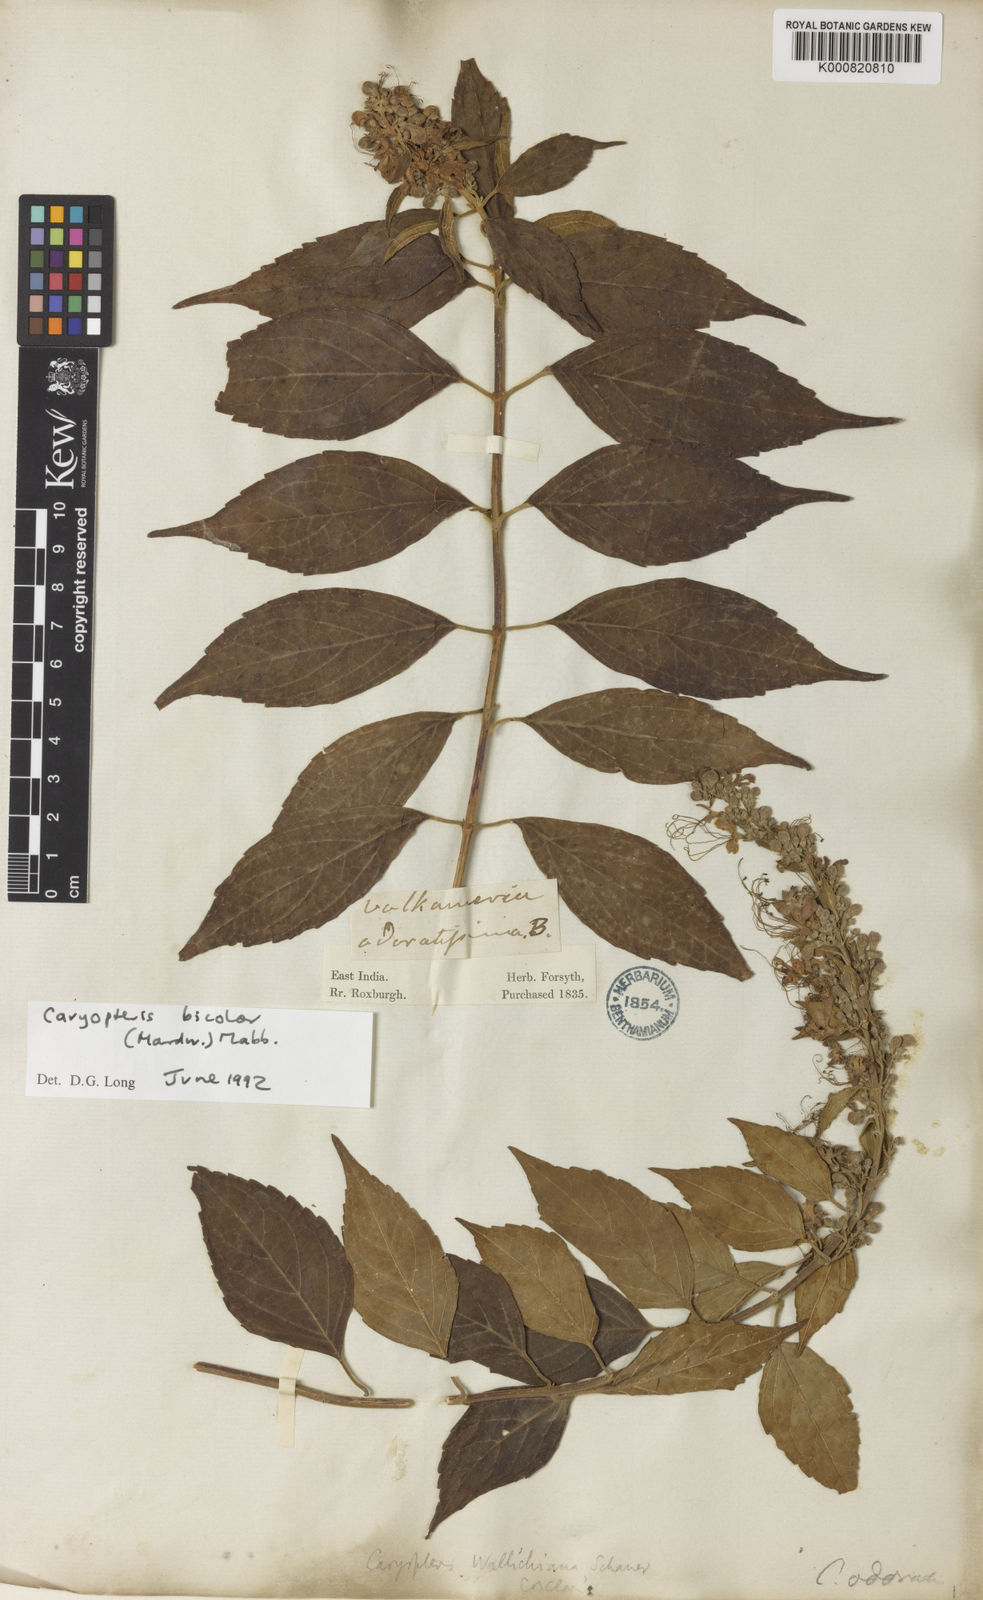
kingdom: Plantae
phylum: Tracheophyta
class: Magnoliopsida
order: Lamiales
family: Lamiaceae
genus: Pseudocaryopteris
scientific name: Pseudocaryopteris bicolor
